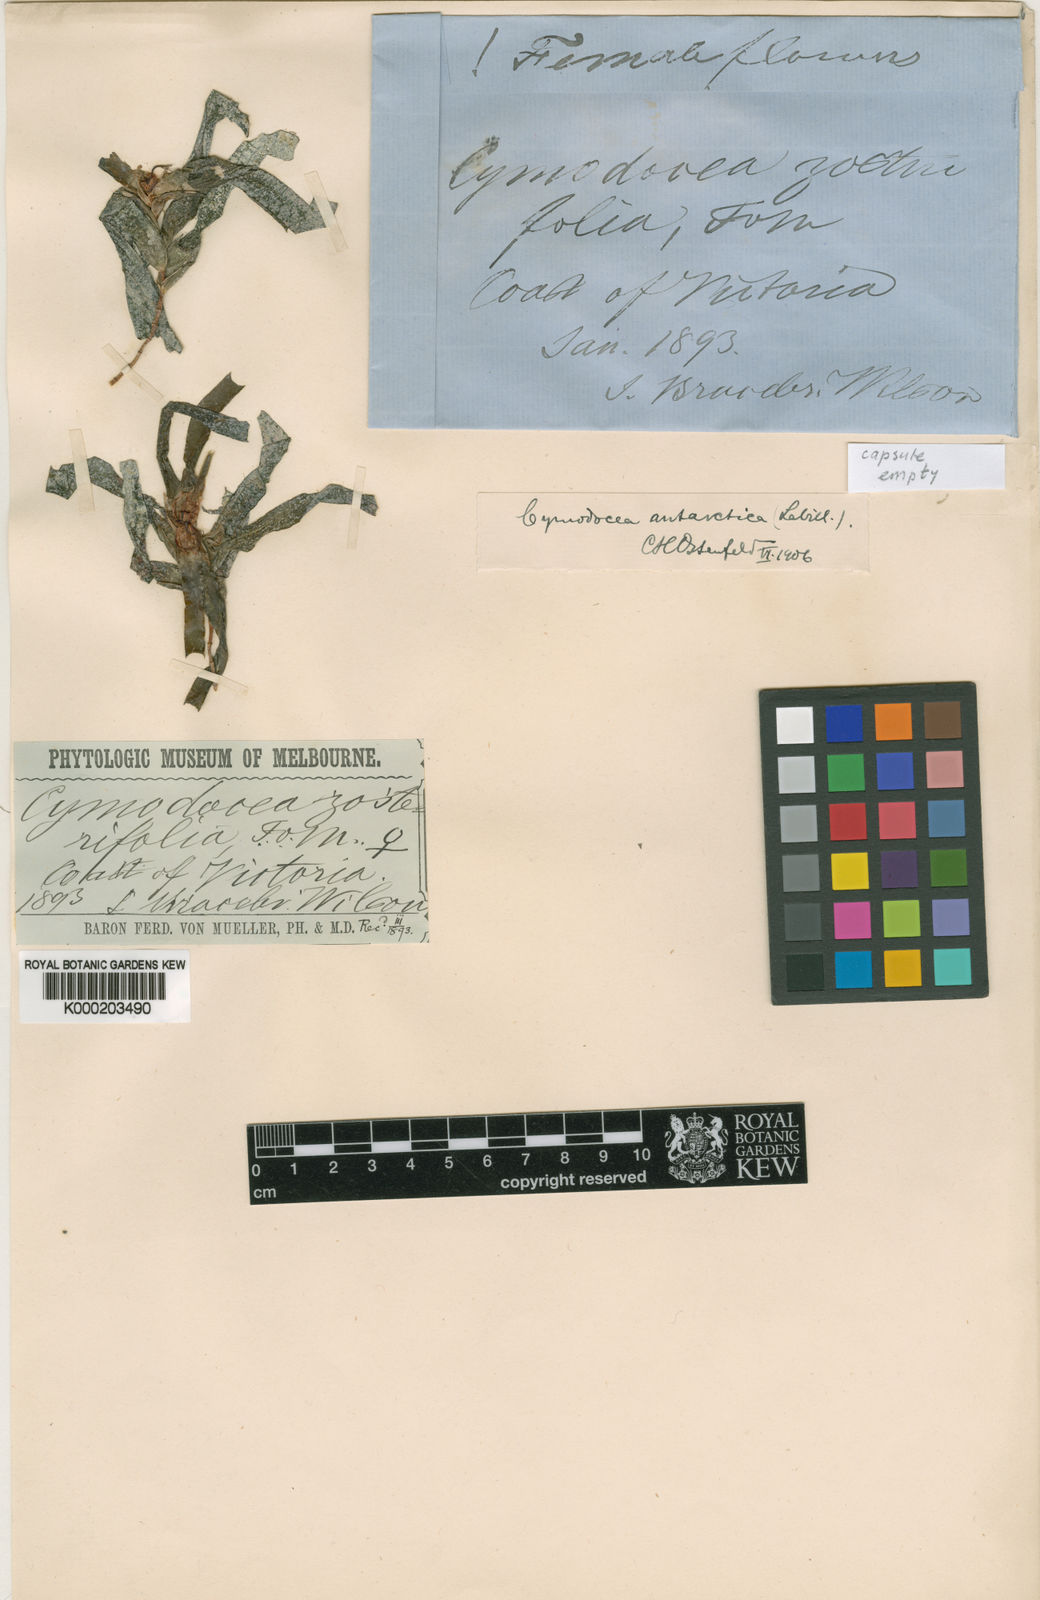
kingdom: Plantae
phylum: Tracheophyta
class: Liliopsida
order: Alismatales
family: Cymodoceaceae
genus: Amphibolis
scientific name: Amphibolis antarctica
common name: Species code: aa
